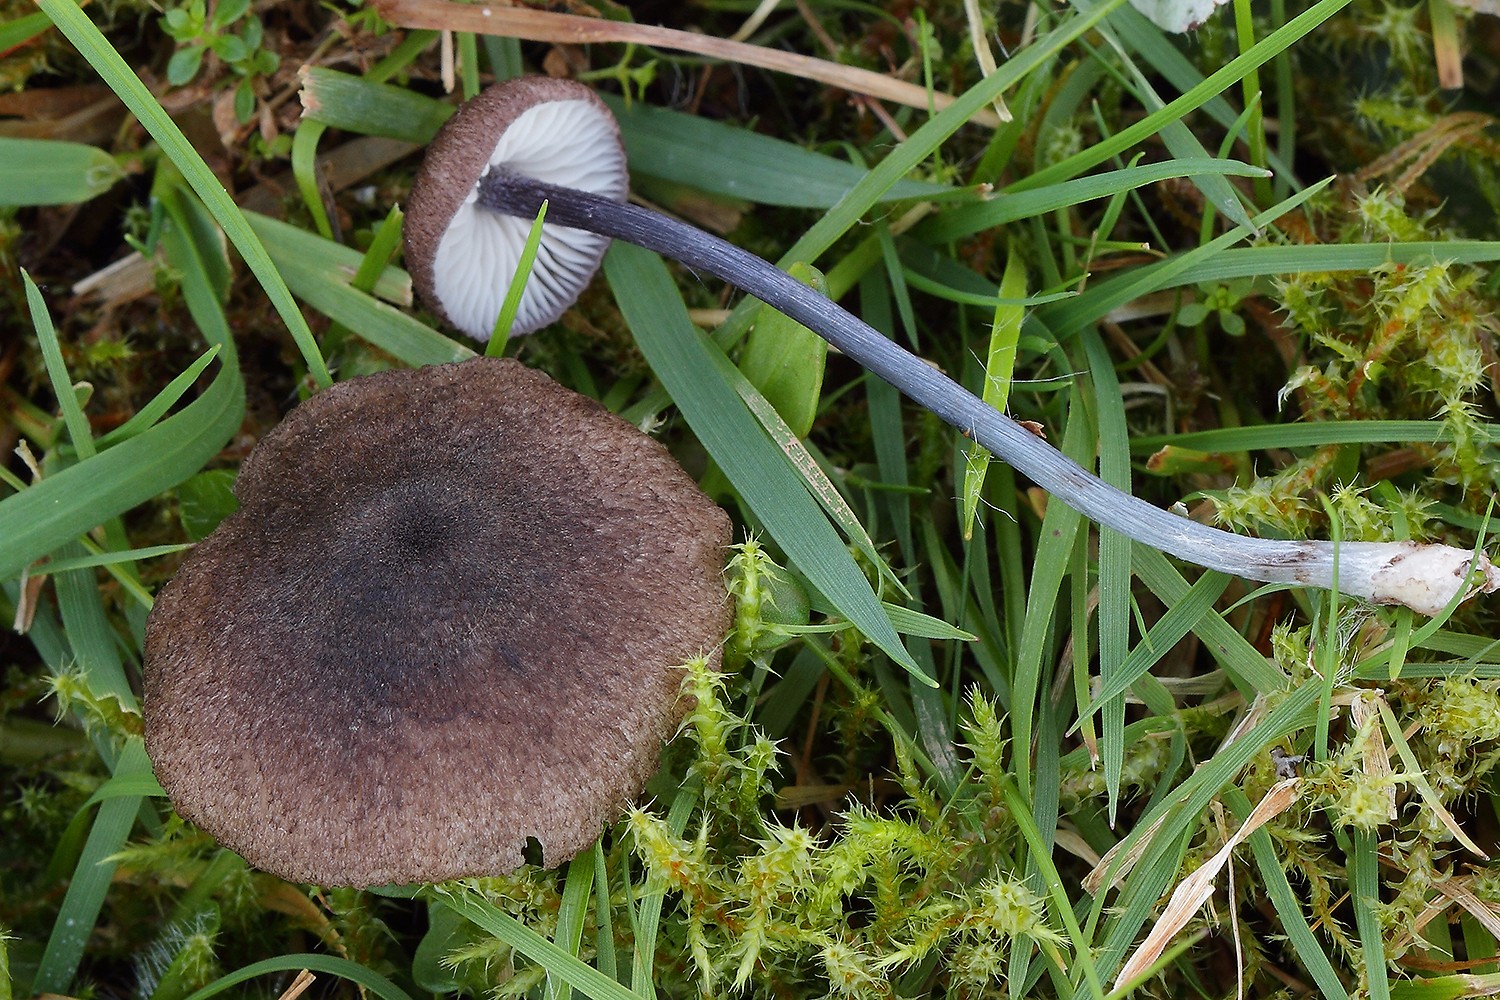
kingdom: Fungi
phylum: Basidiomycota
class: Agaricomycetes
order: Agaricales
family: Entolomataceae
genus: Entoloma
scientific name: Entoloma lampropus
